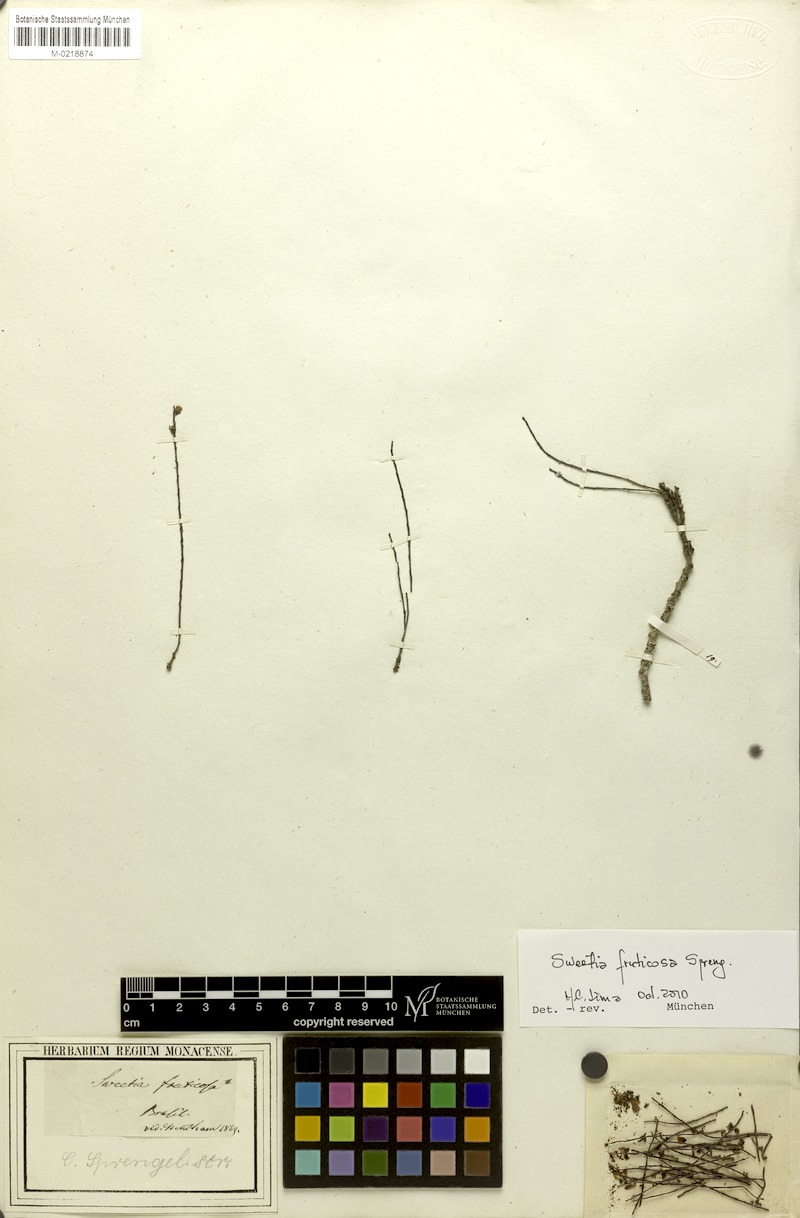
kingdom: Plantae
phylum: Tracheophyta
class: Magnoliopsida
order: Fabales
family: Fabaceae
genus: Sweetia
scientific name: Sweetia fruticosa
